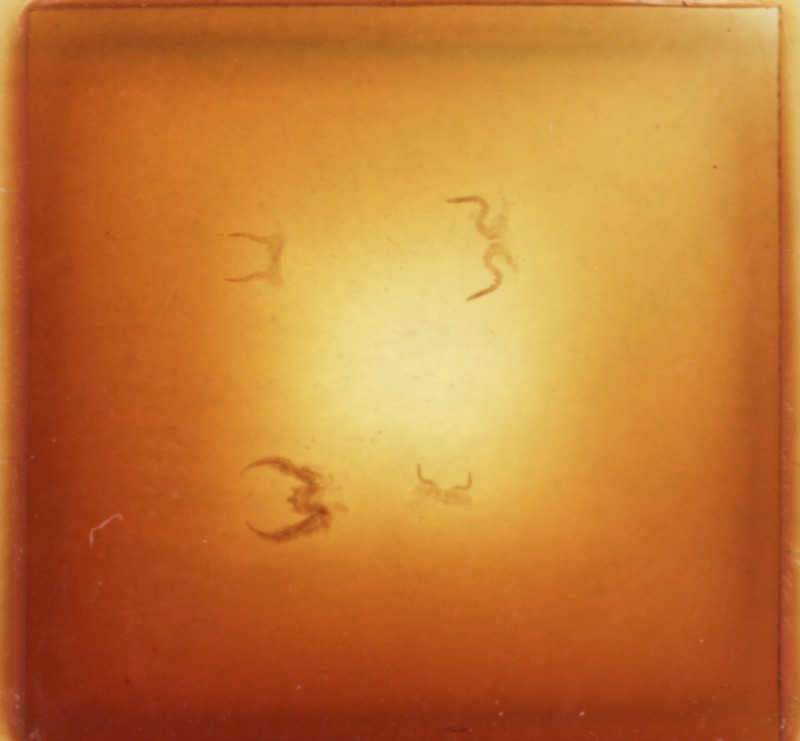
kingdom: Animalia
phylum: Arthropoda
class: Diplopoda
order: Glomerida
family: Glomeridae
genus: Haploglomeris
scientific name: Haploglomeris multistriata
